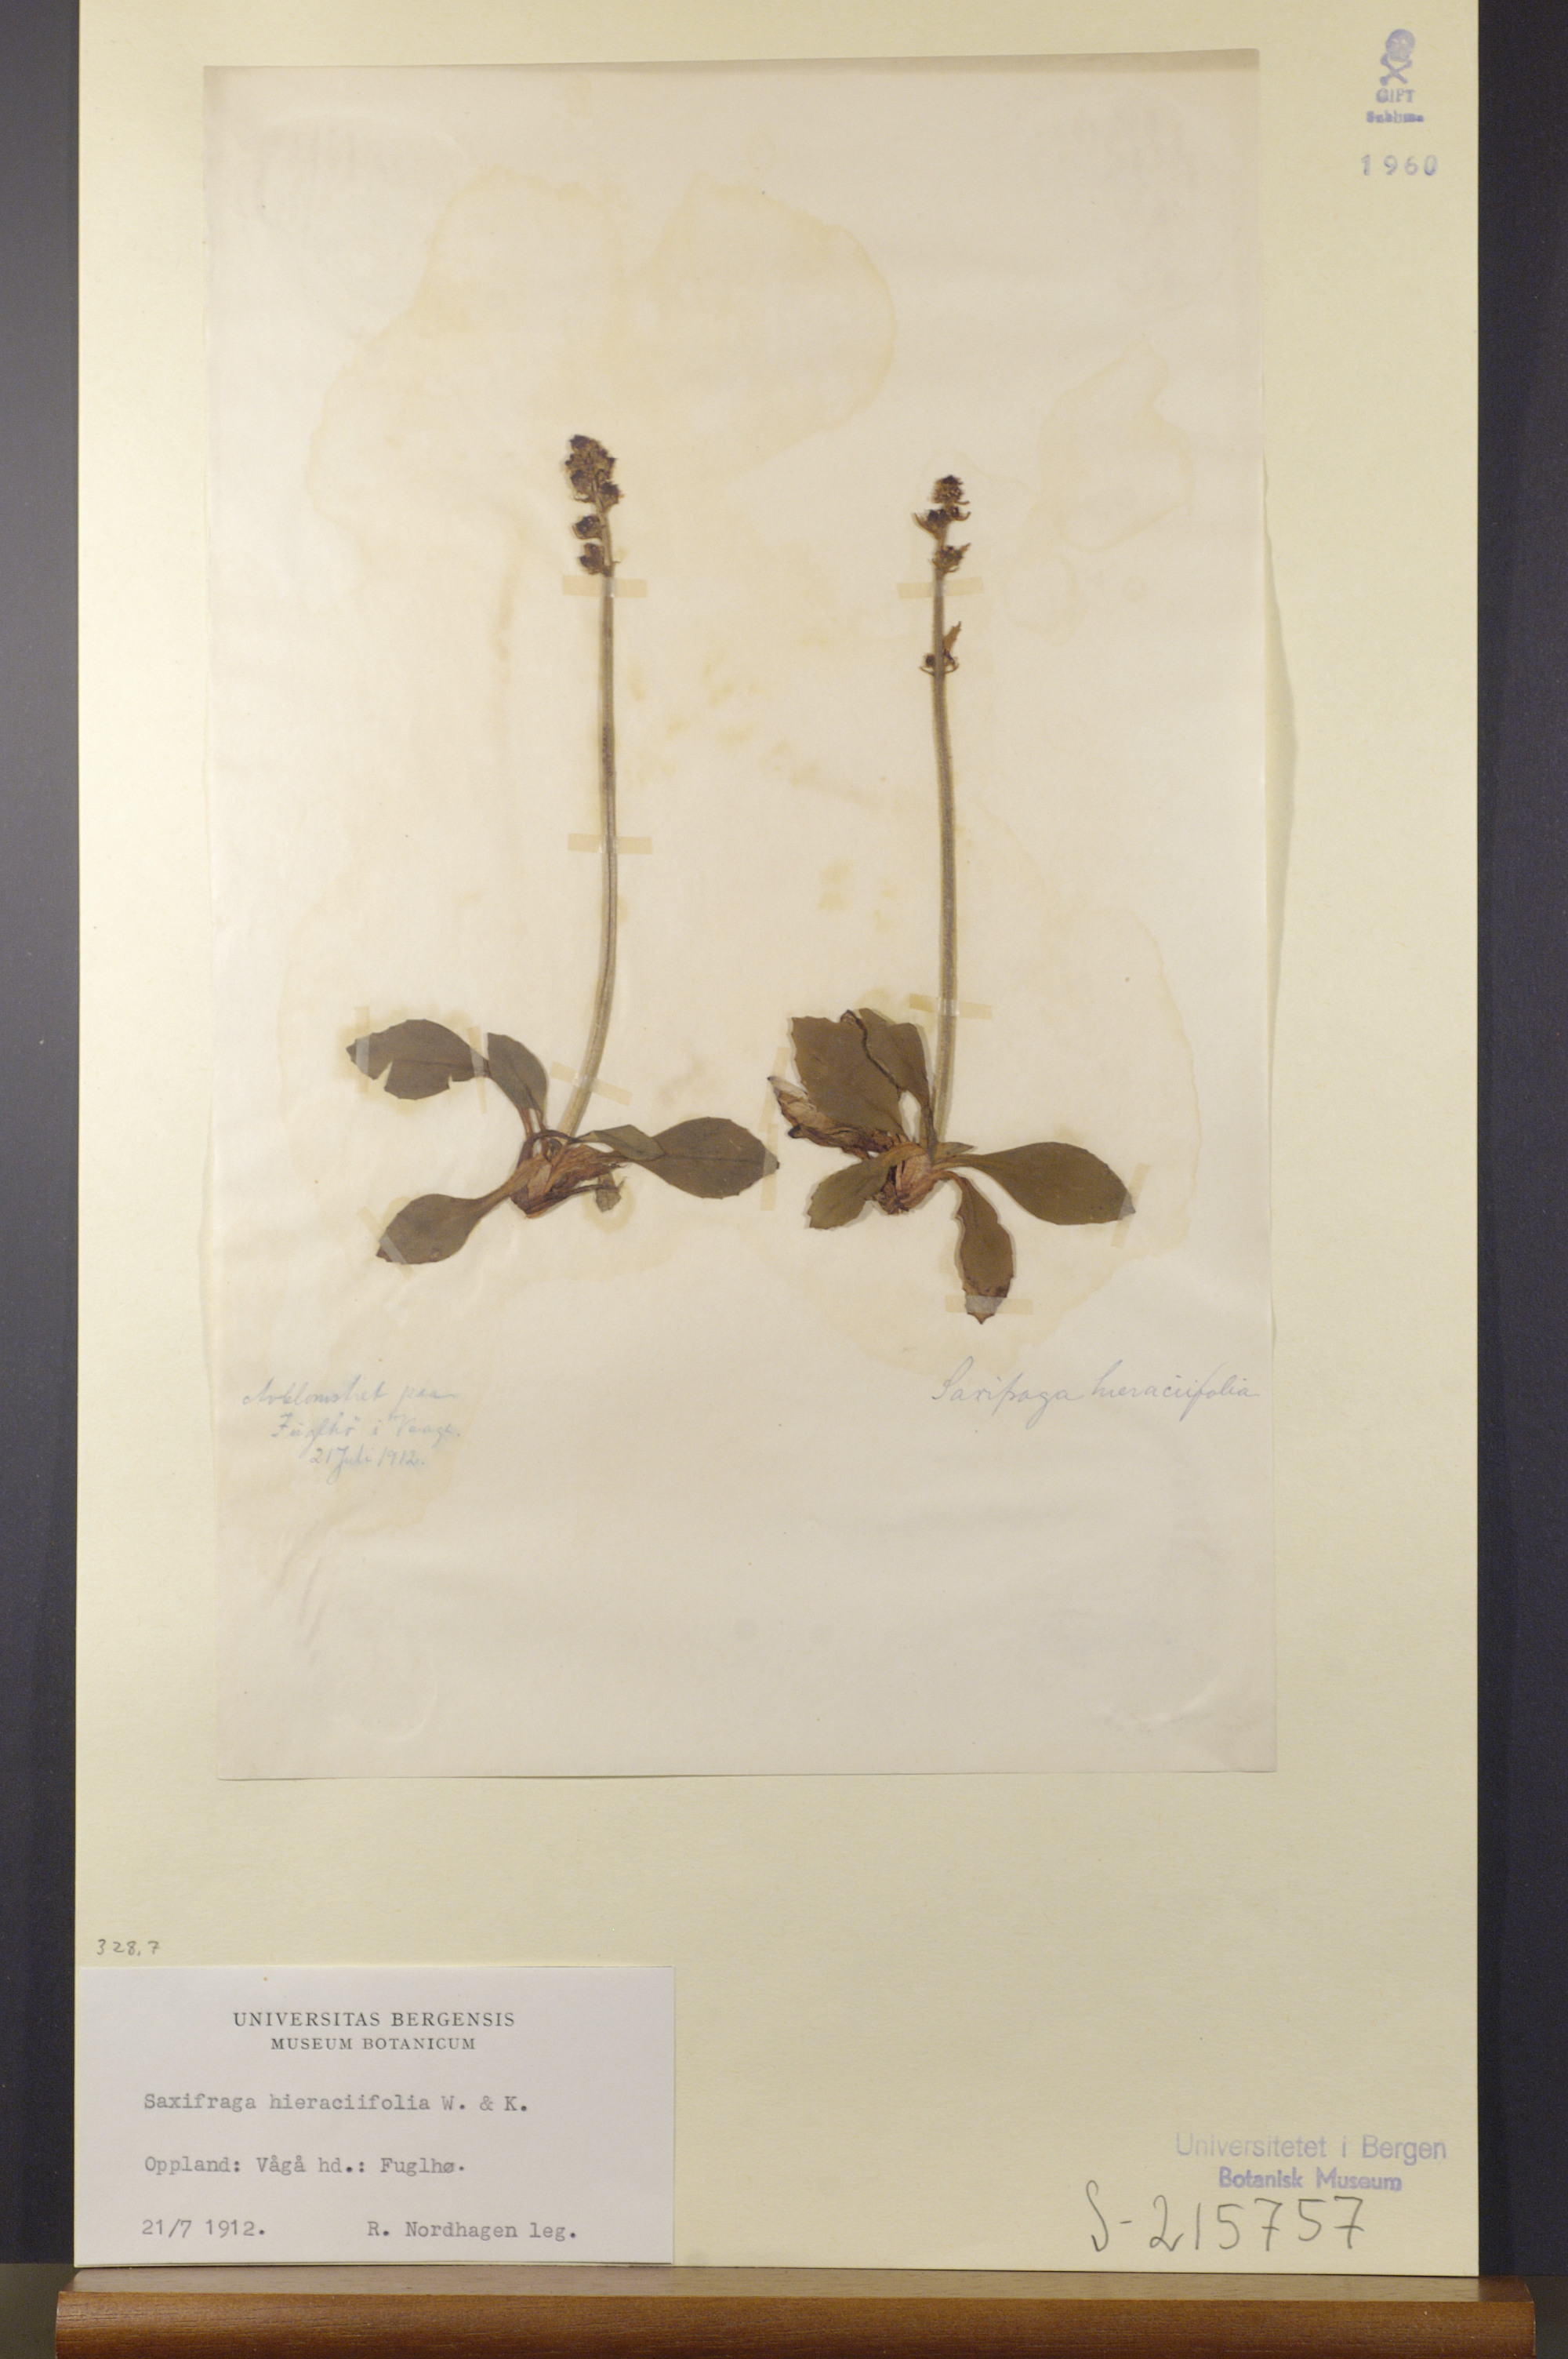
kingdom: Plantae
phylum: Tracheophyta
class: Magnoliopsida
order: Saxifragales
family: Saxifragaceae
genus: Micranthes
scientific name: Micranthes hieraciifolia
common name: Hawkweed-leaved saxifrage
